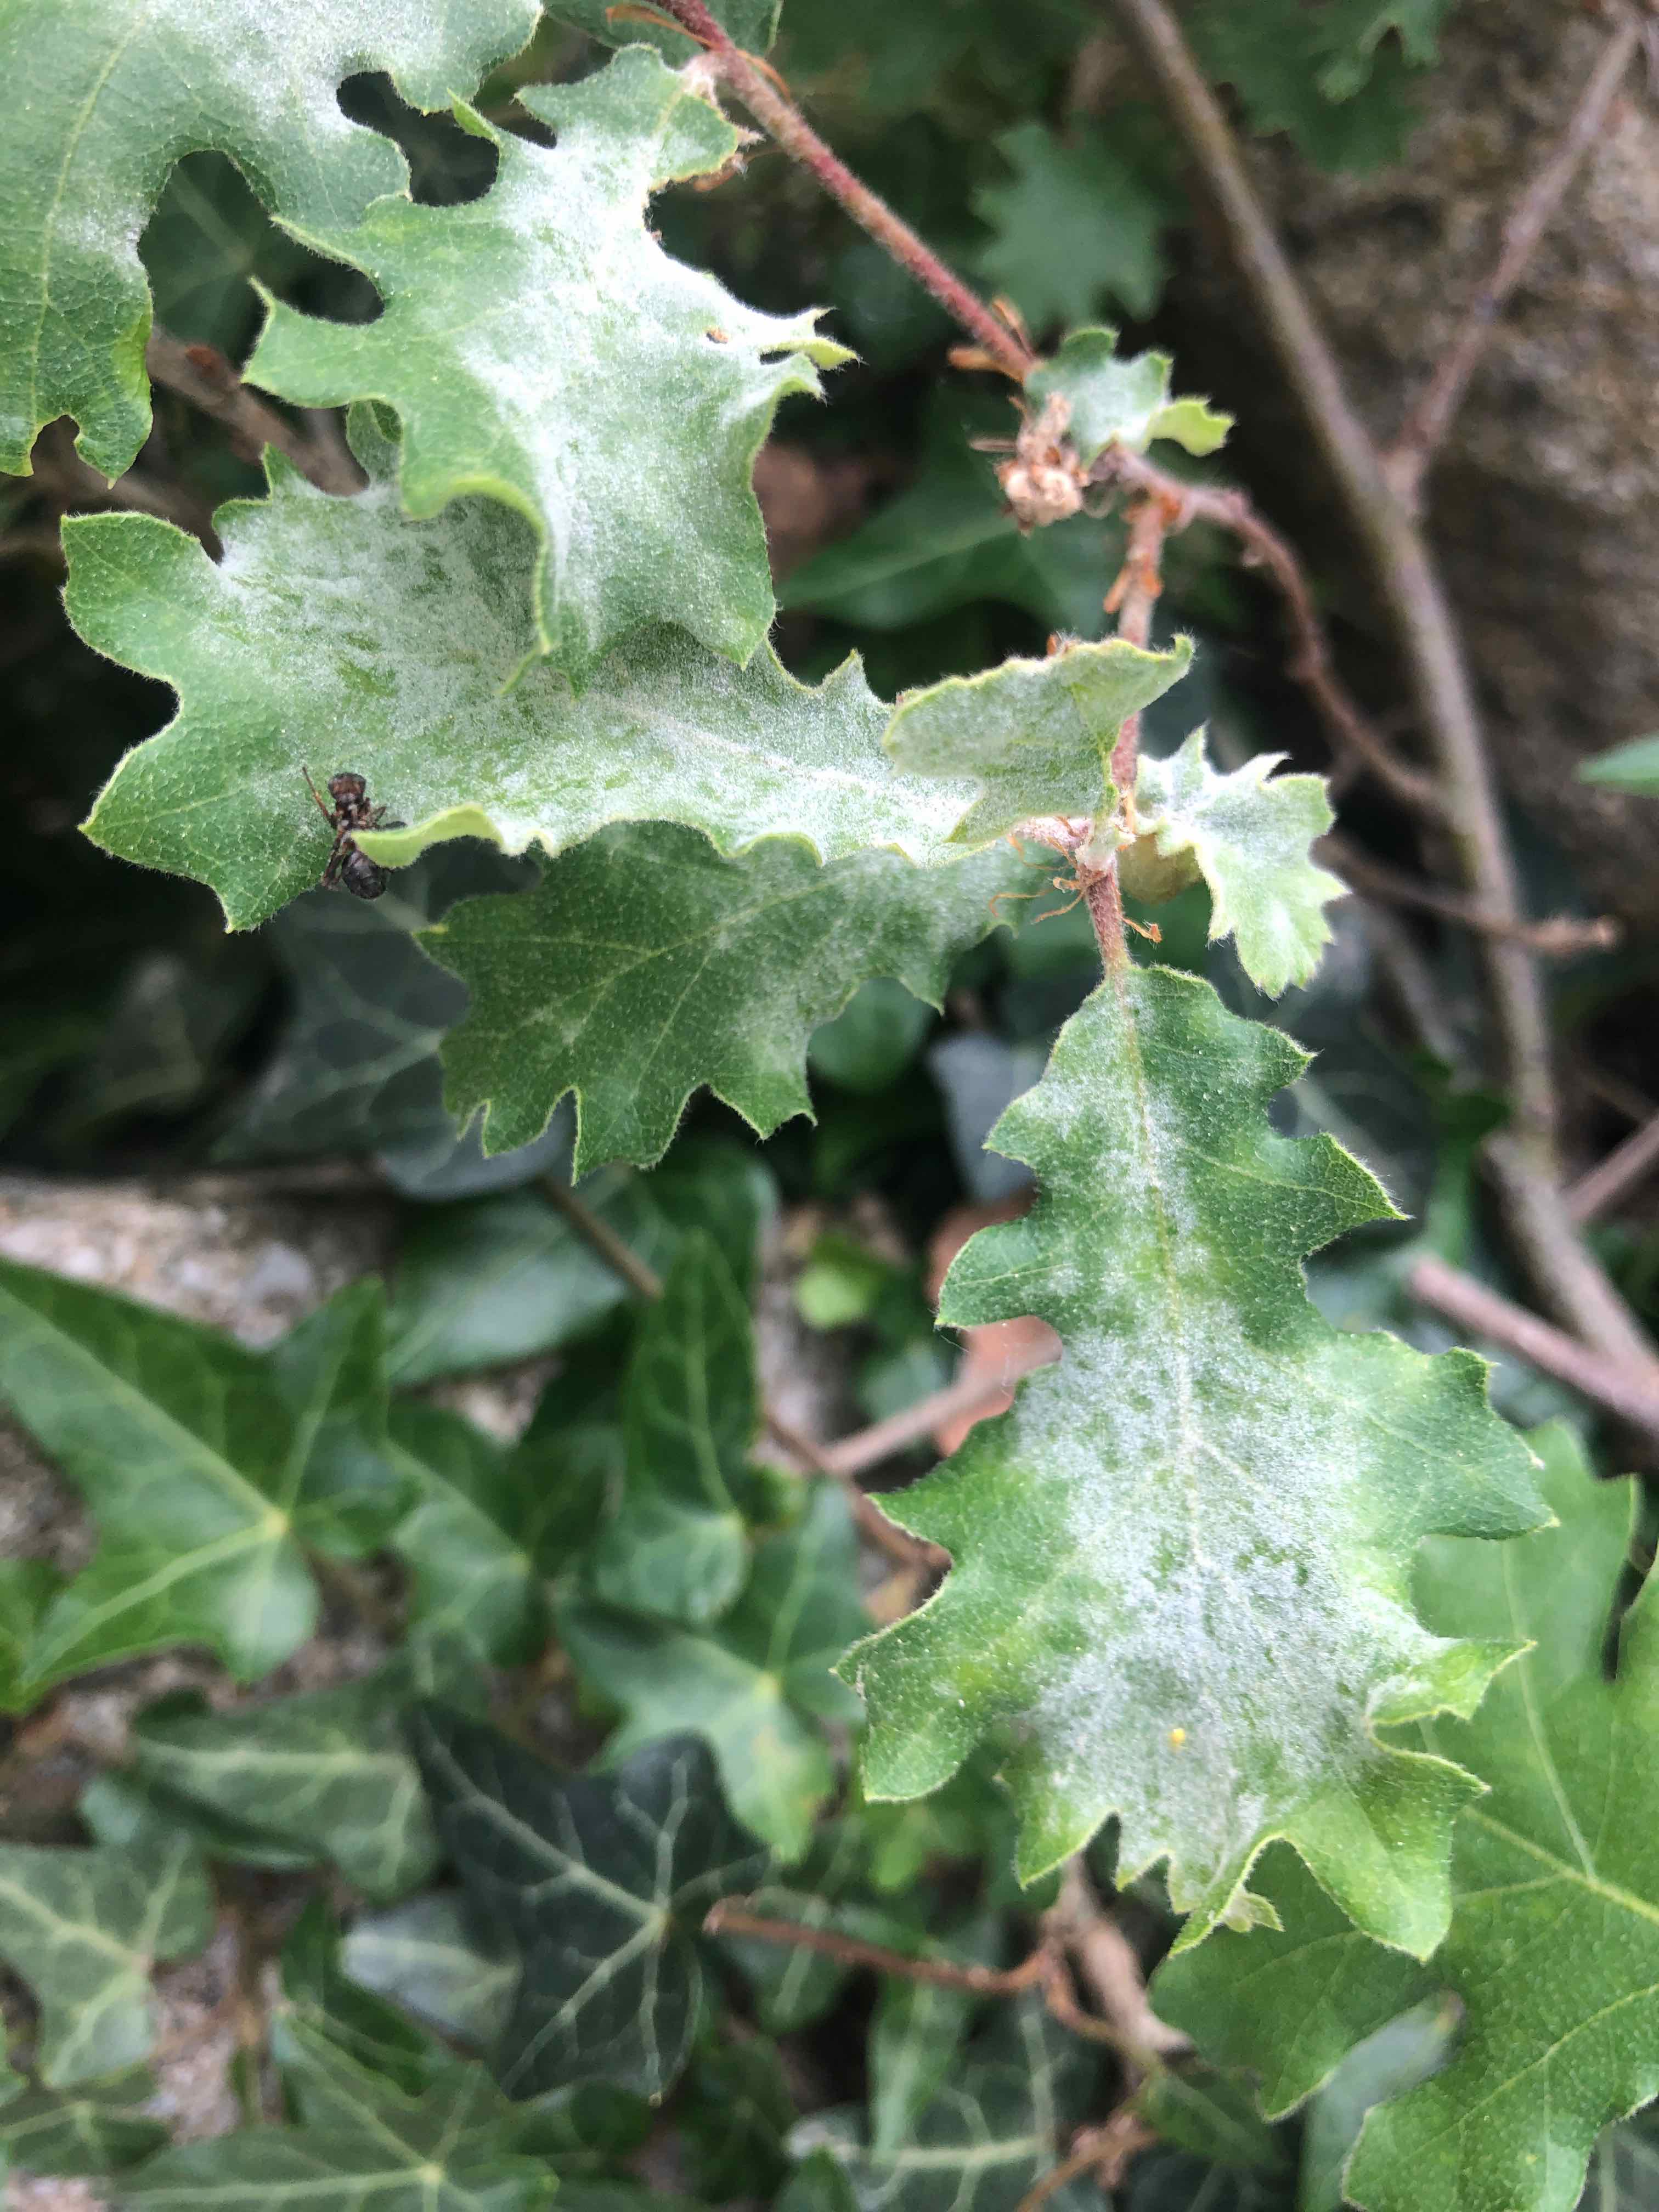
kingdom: Fungi
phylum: Ascomycota
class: Leotiomycetes
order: Helotiales
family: Erysiphaceae
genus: Erysiphe
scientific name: Erysiphe alphitoides
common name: ege-meldug
